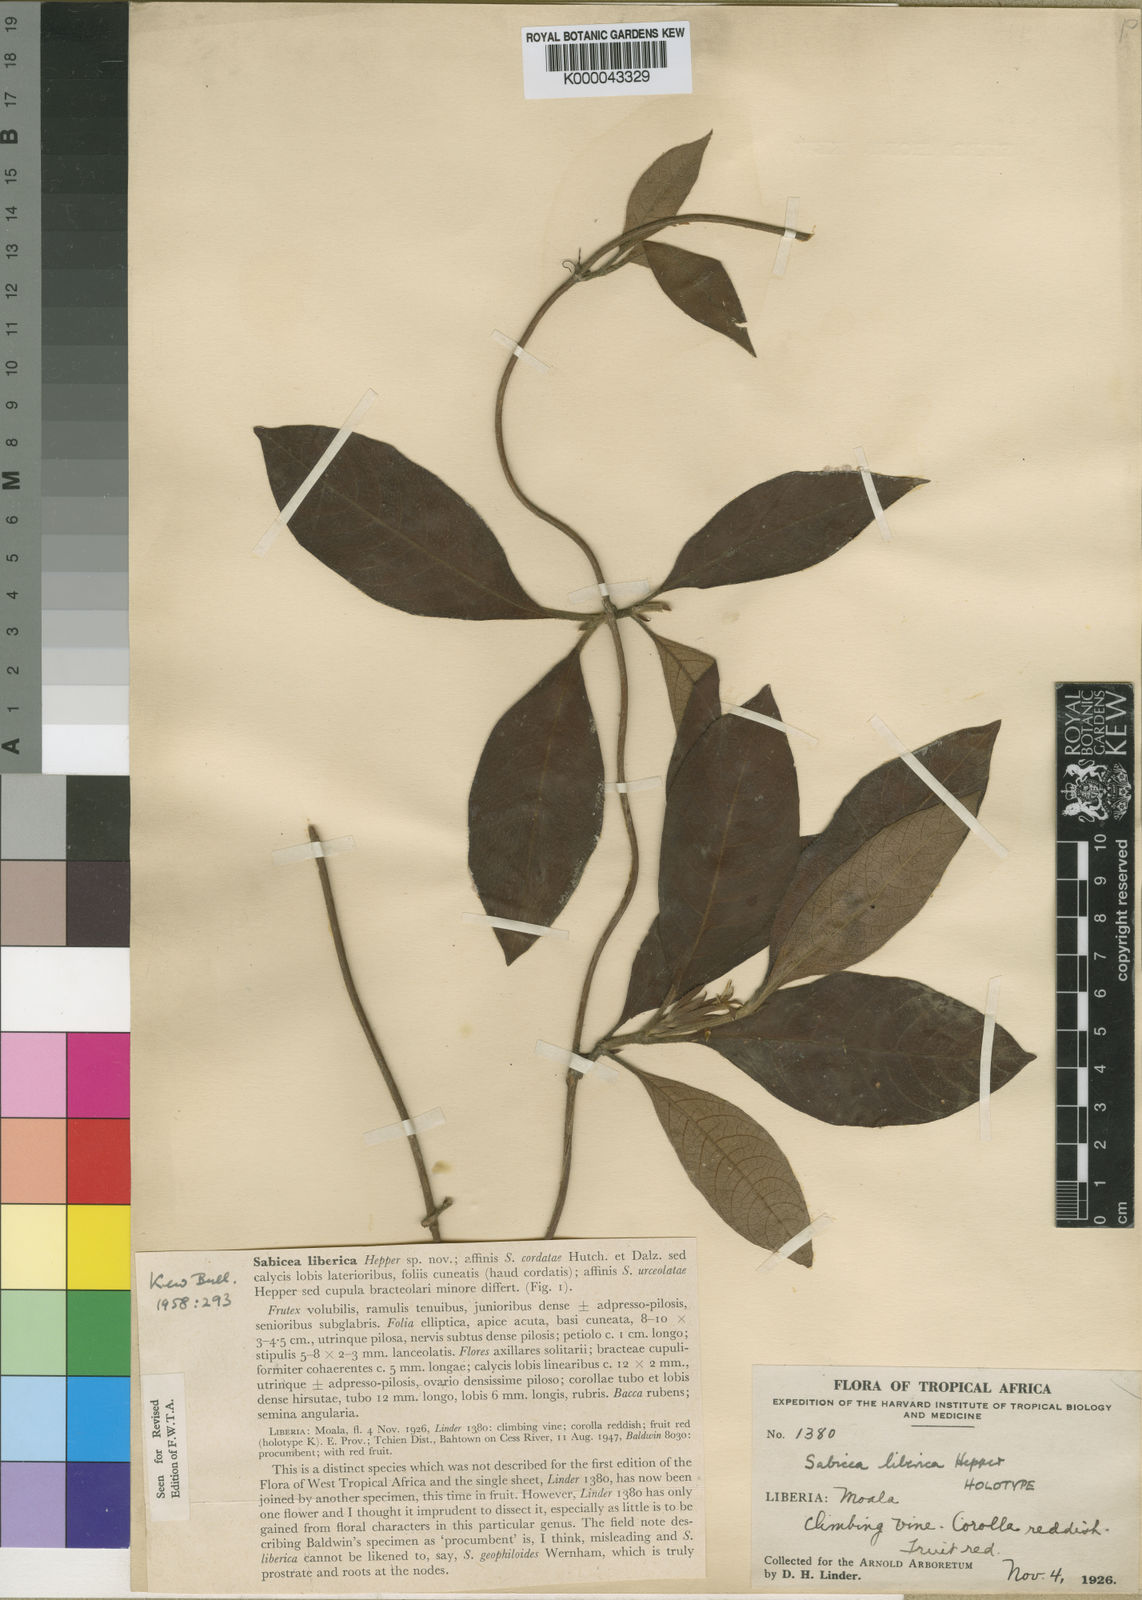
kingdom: Plantae
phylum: Tracheophyta
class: Magnoliopsida
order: Gentianales
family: Rubiaceae
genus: Sabicea
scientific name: Sabicea liberica
